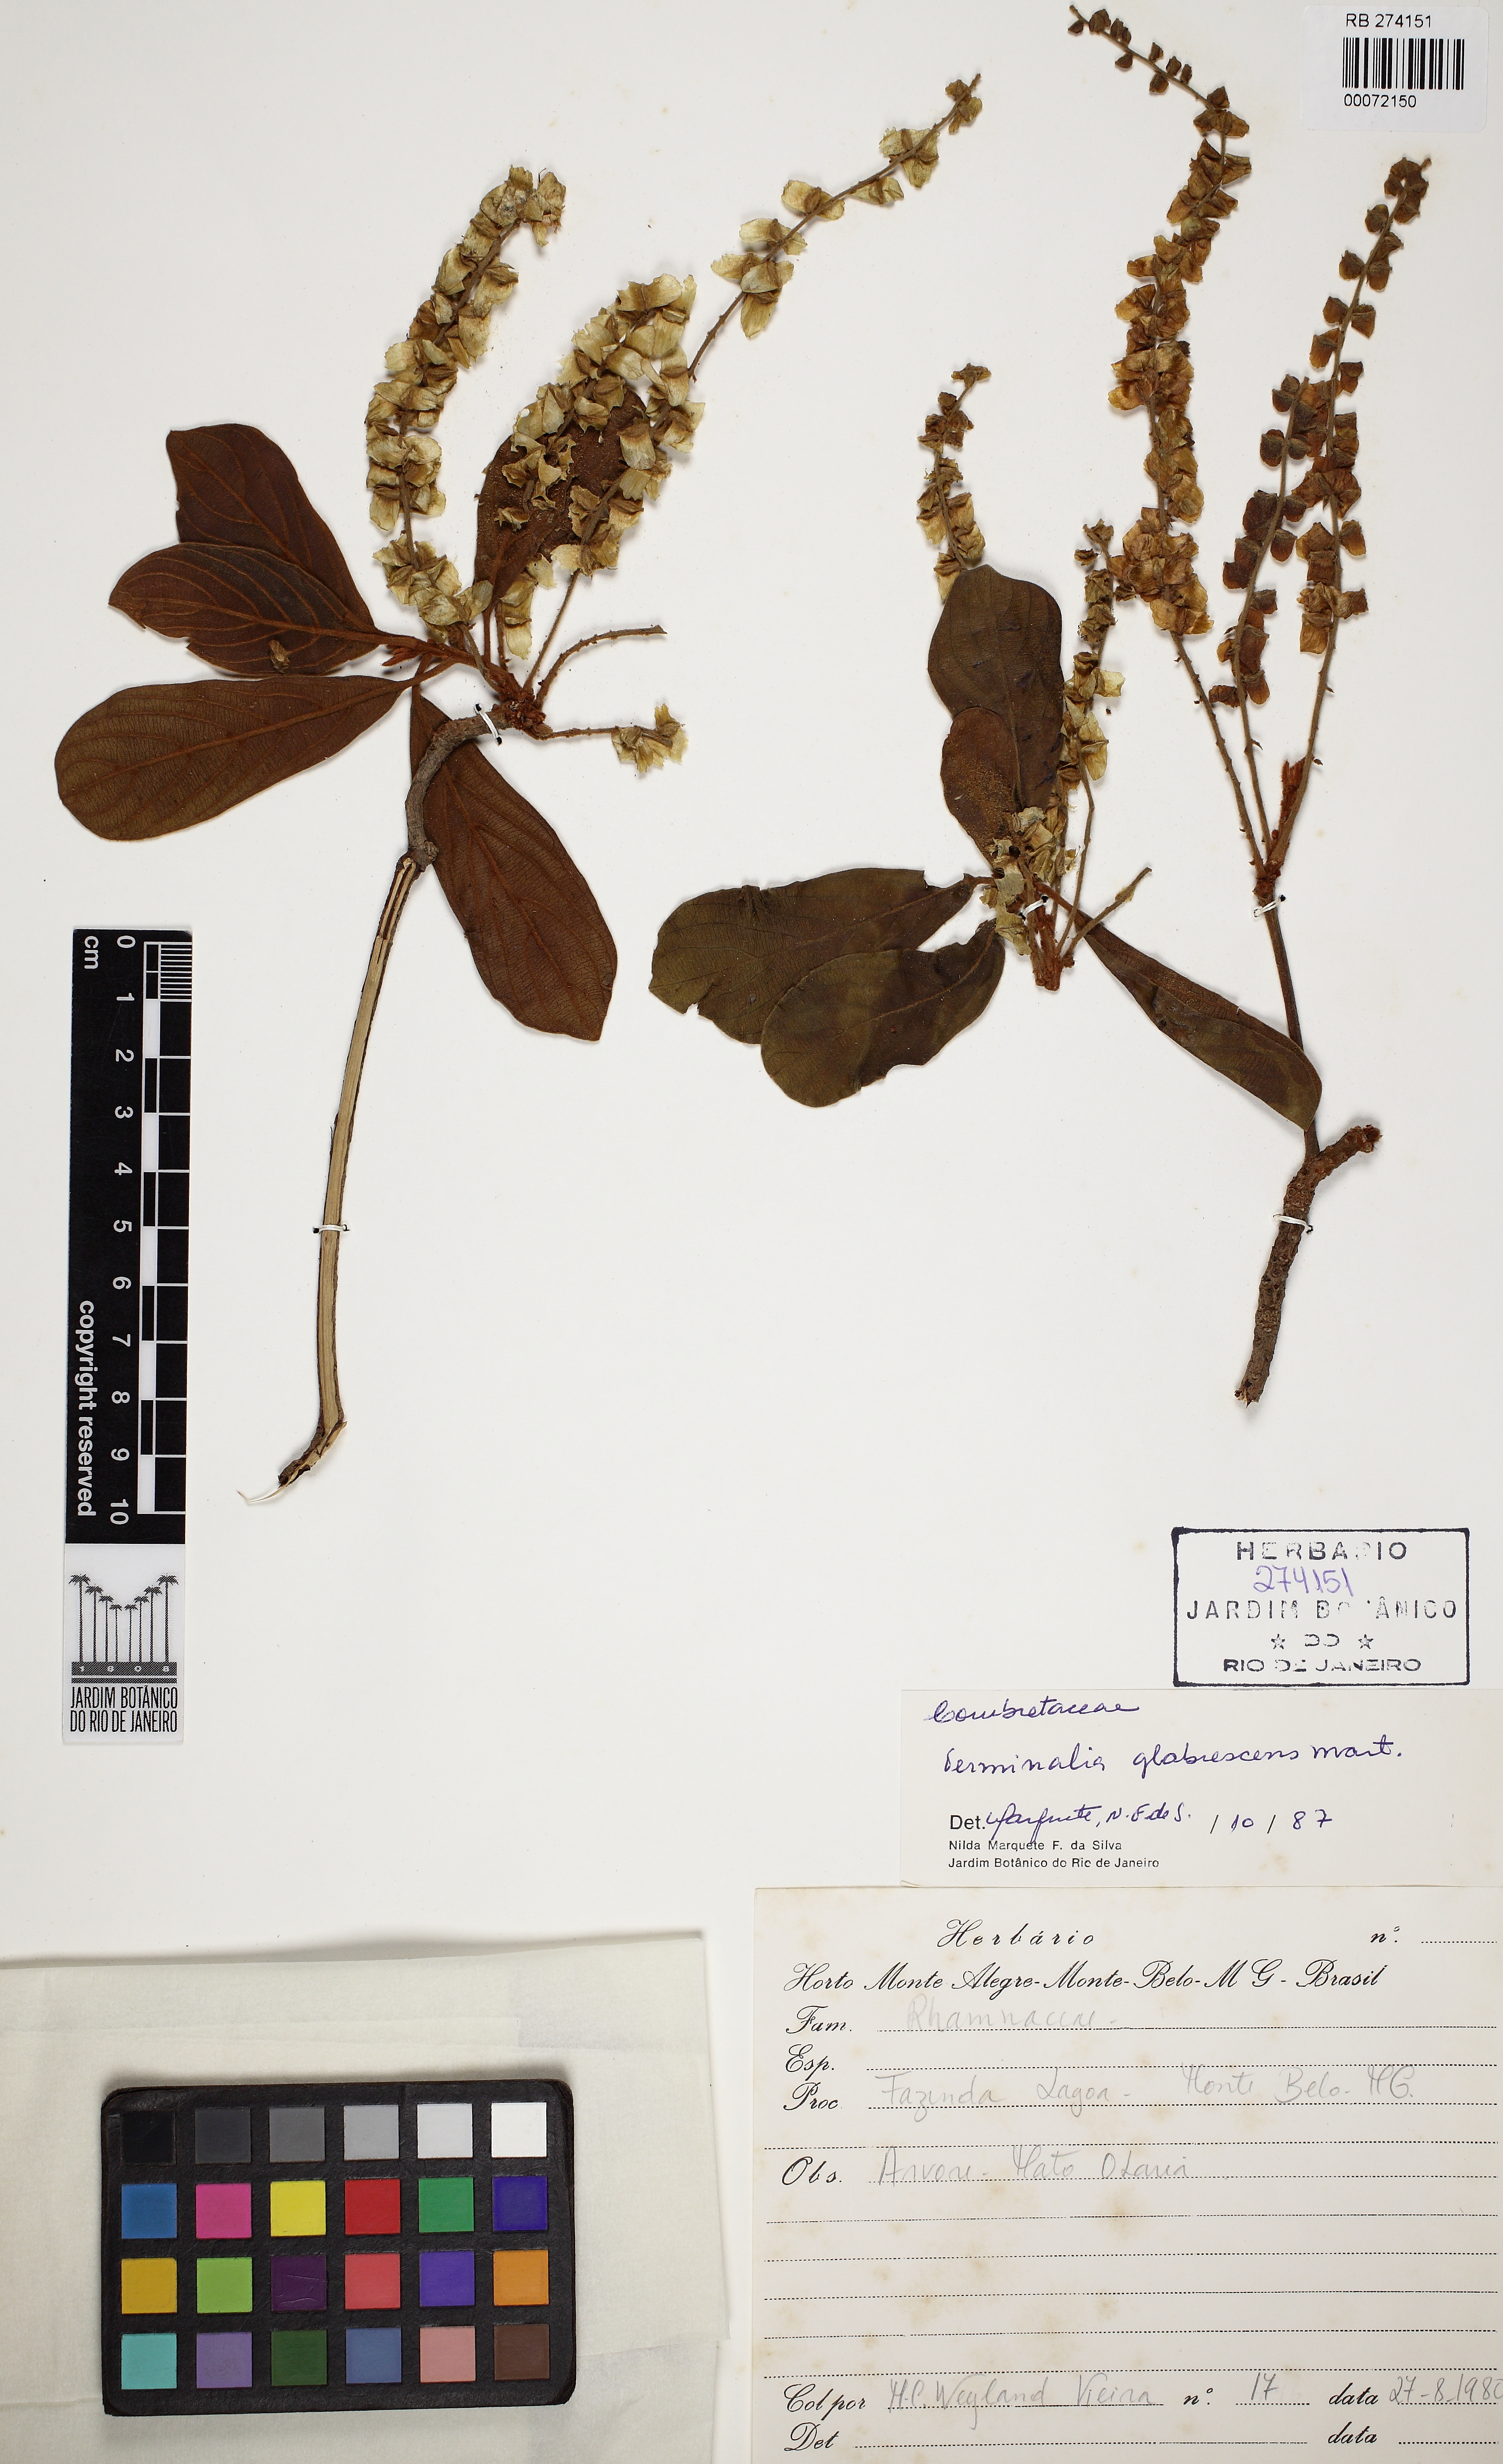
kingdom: Plantae
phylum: Tracheophyta
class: Magnoliopsida
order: Myrtales
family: Combretaceae
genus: Terminalia
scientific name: Terminalia glabrescens
